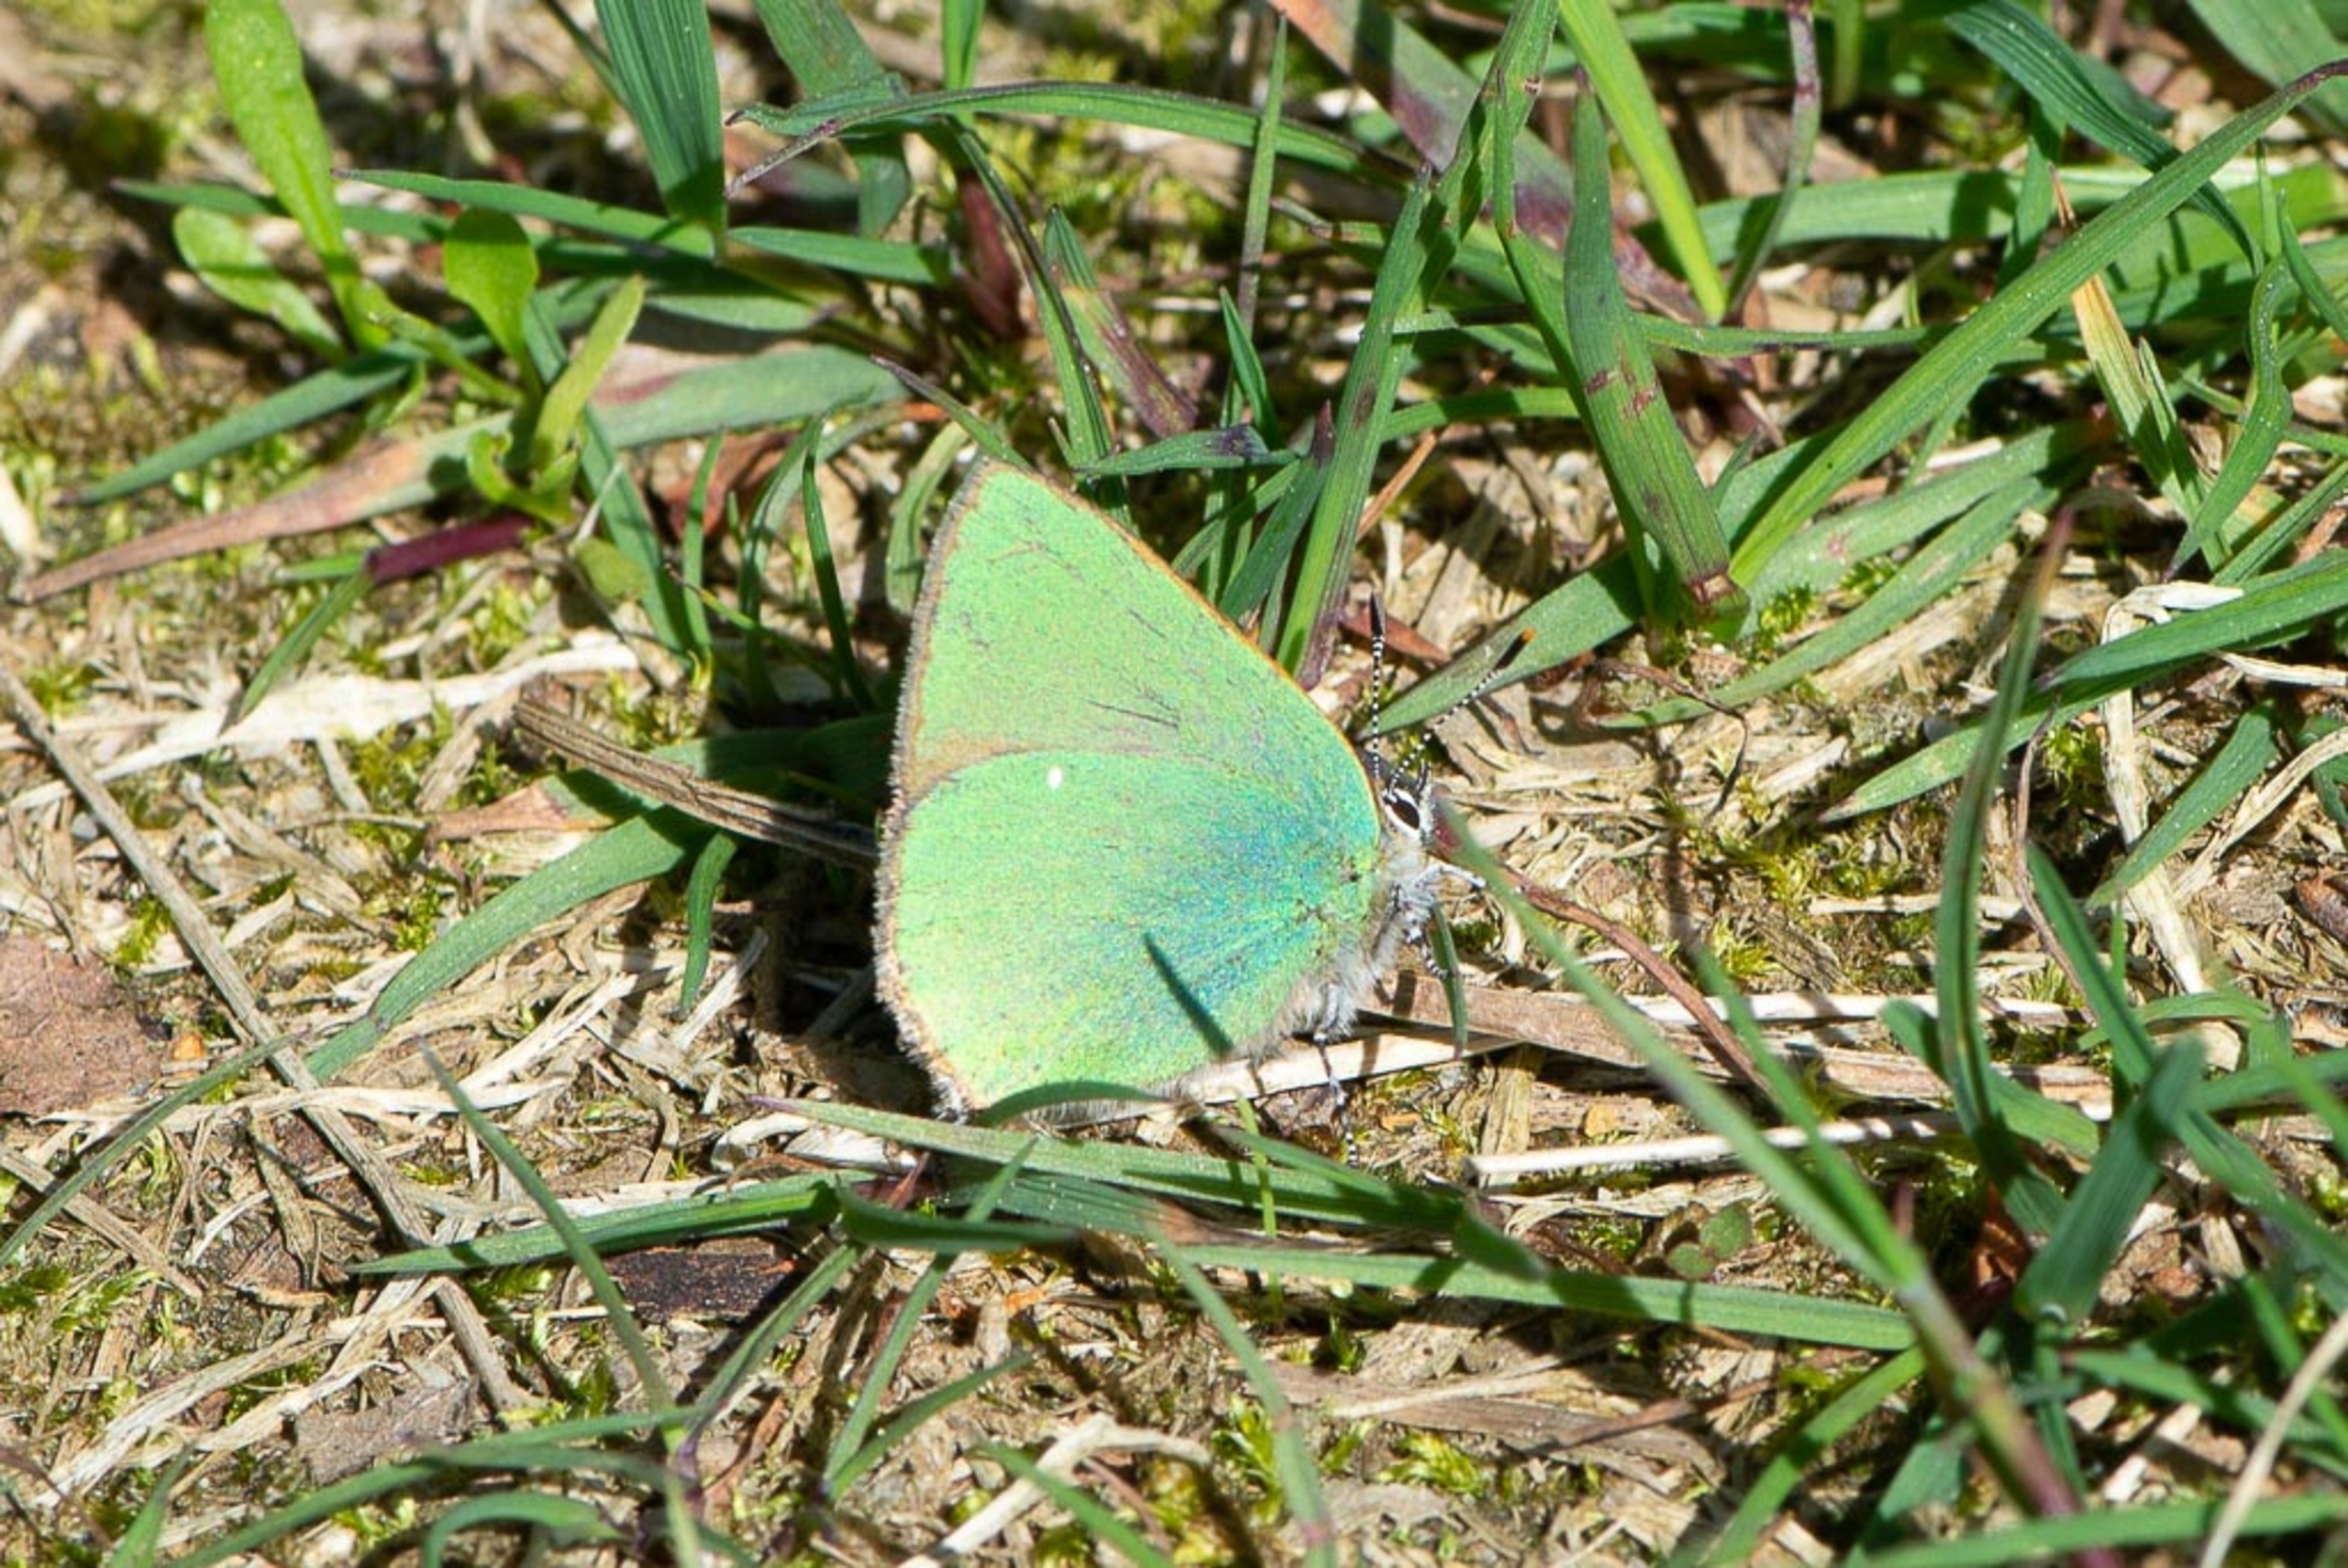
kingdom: Animalia
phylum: Arthropoda
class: Insecta
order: Lepidoptera
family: Lycaenidae
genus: Callophrys
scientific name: Callophrys rubi
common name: Grøn busksommerfugl
